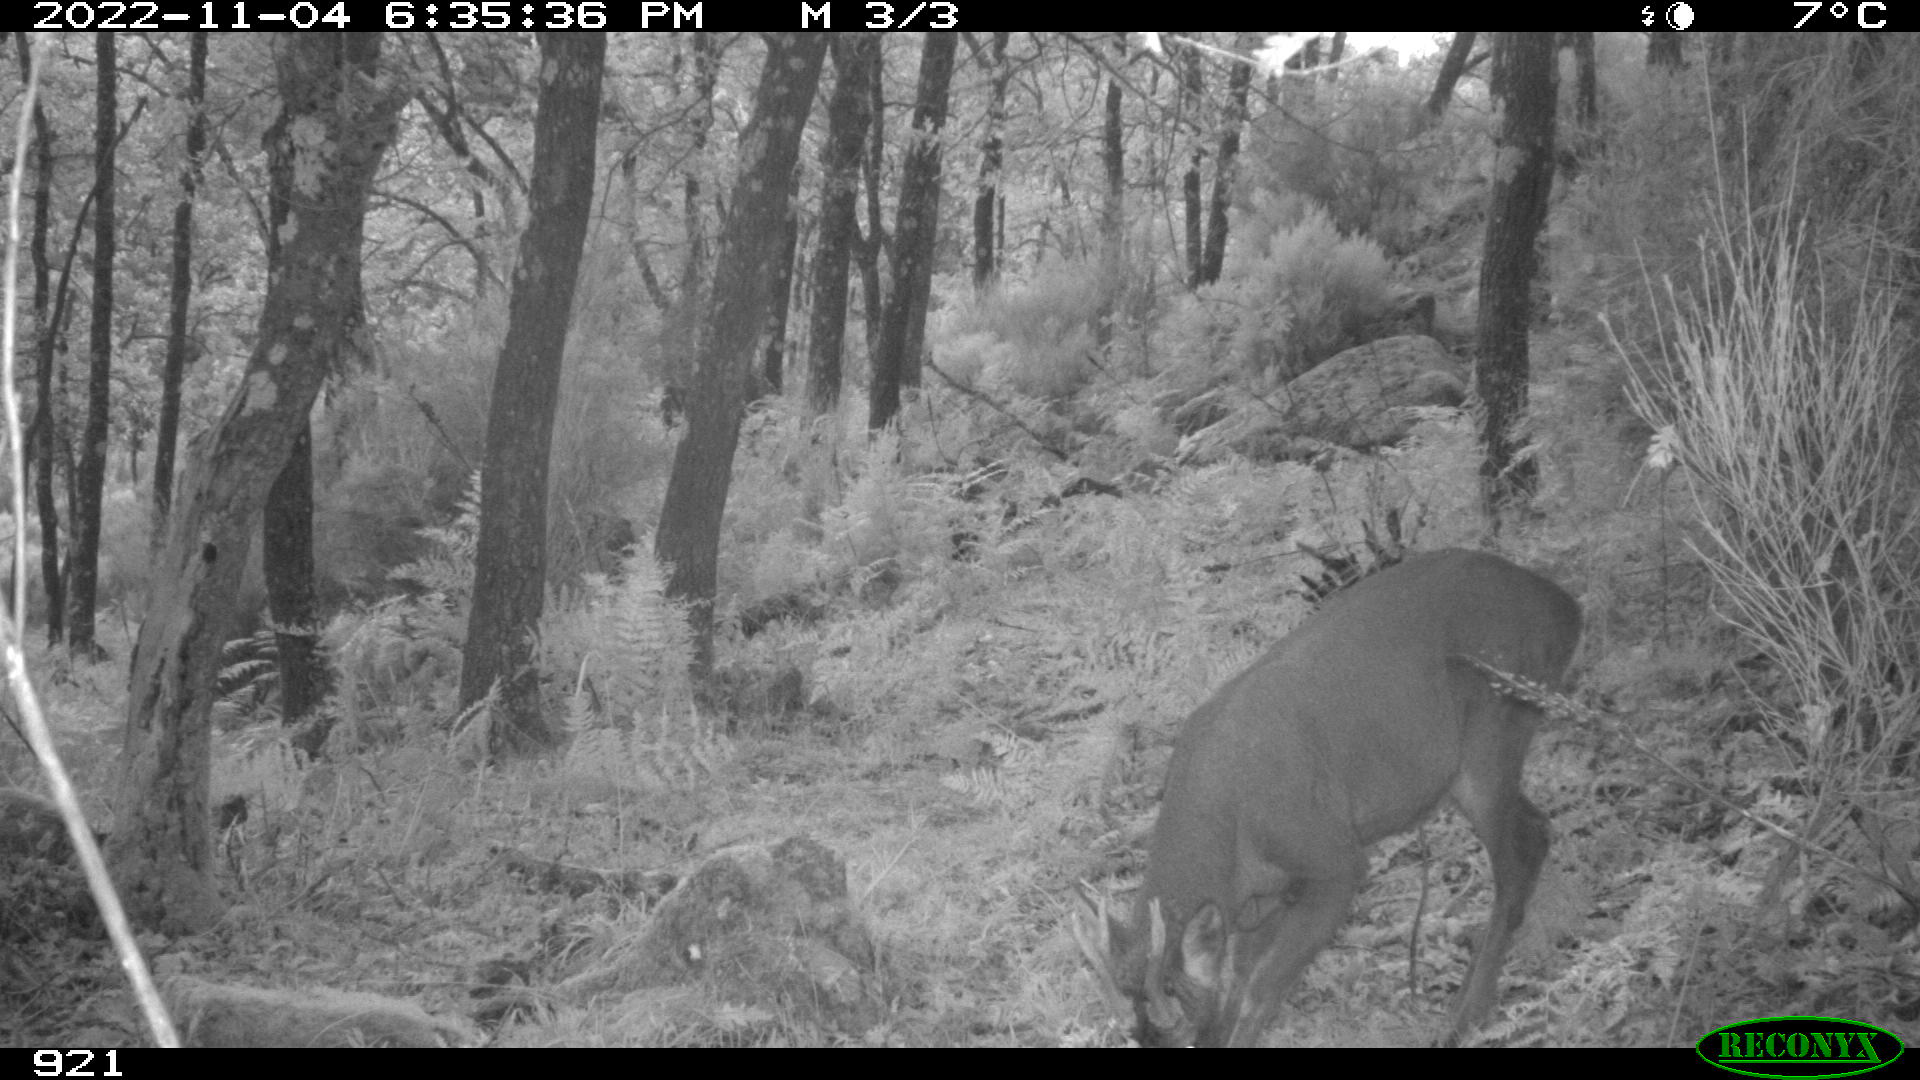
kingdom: Animalia
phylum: Chordata
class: Mammalia
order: Artiodactyla
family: Cervidae
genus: Capreolus
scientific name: Capreolus capreolus
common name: Western roe deer
